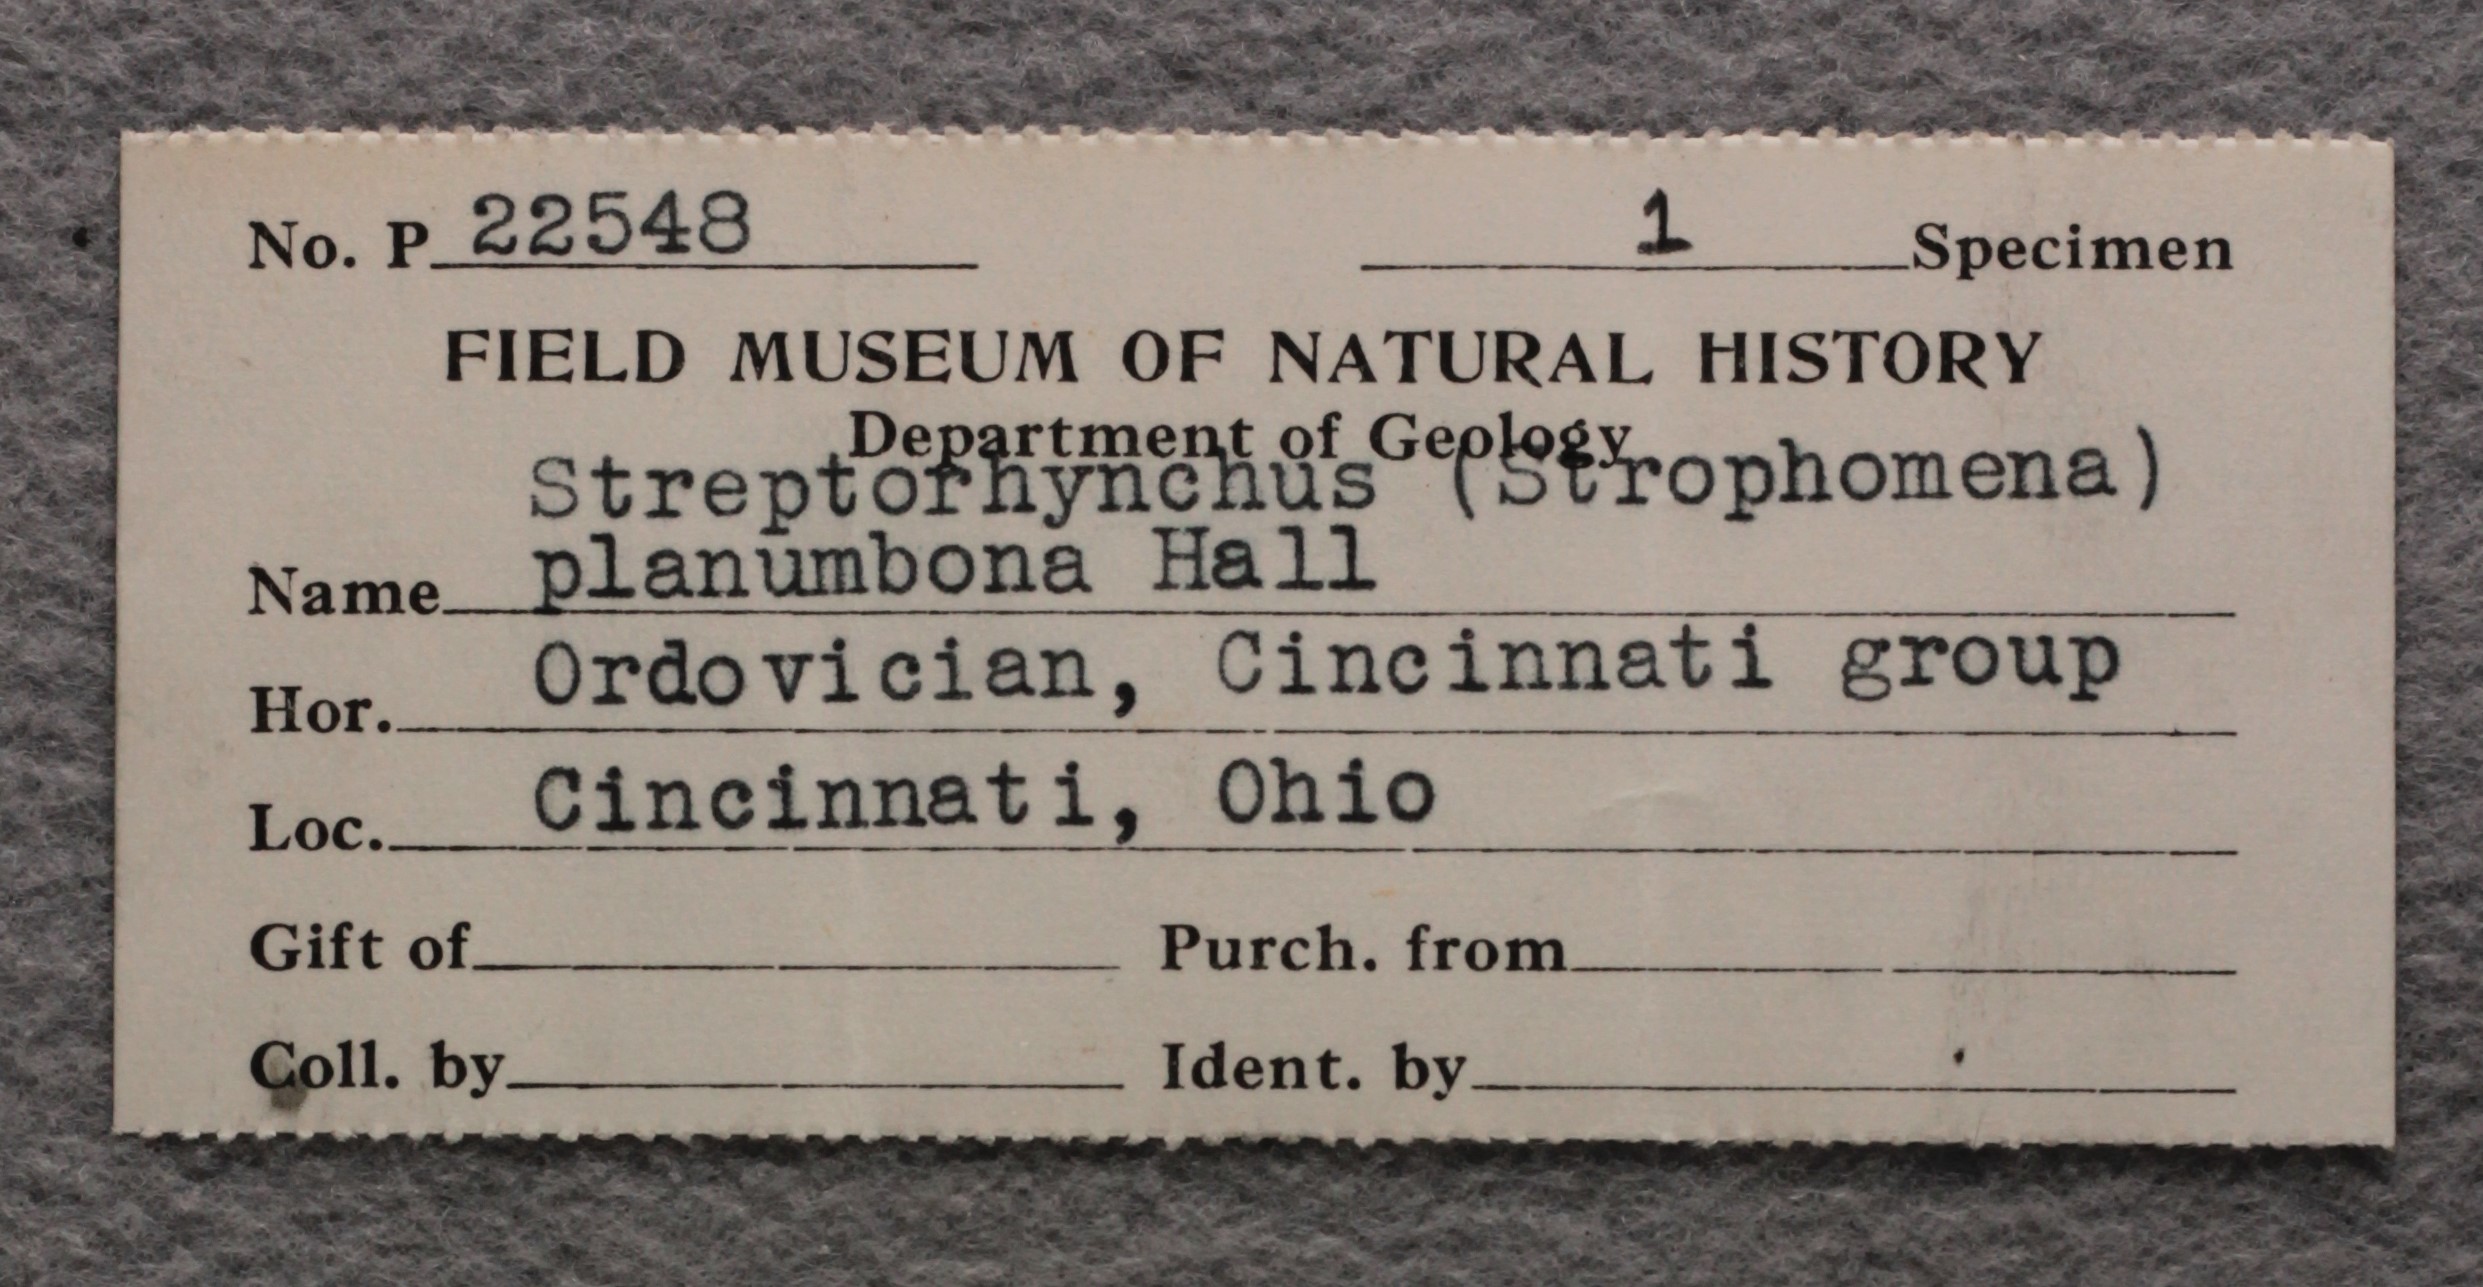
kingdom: Animalia
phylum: Brachiopoda
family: Streptorhynchidae
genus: Streptorhynchus
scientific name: Streptorhynchus
